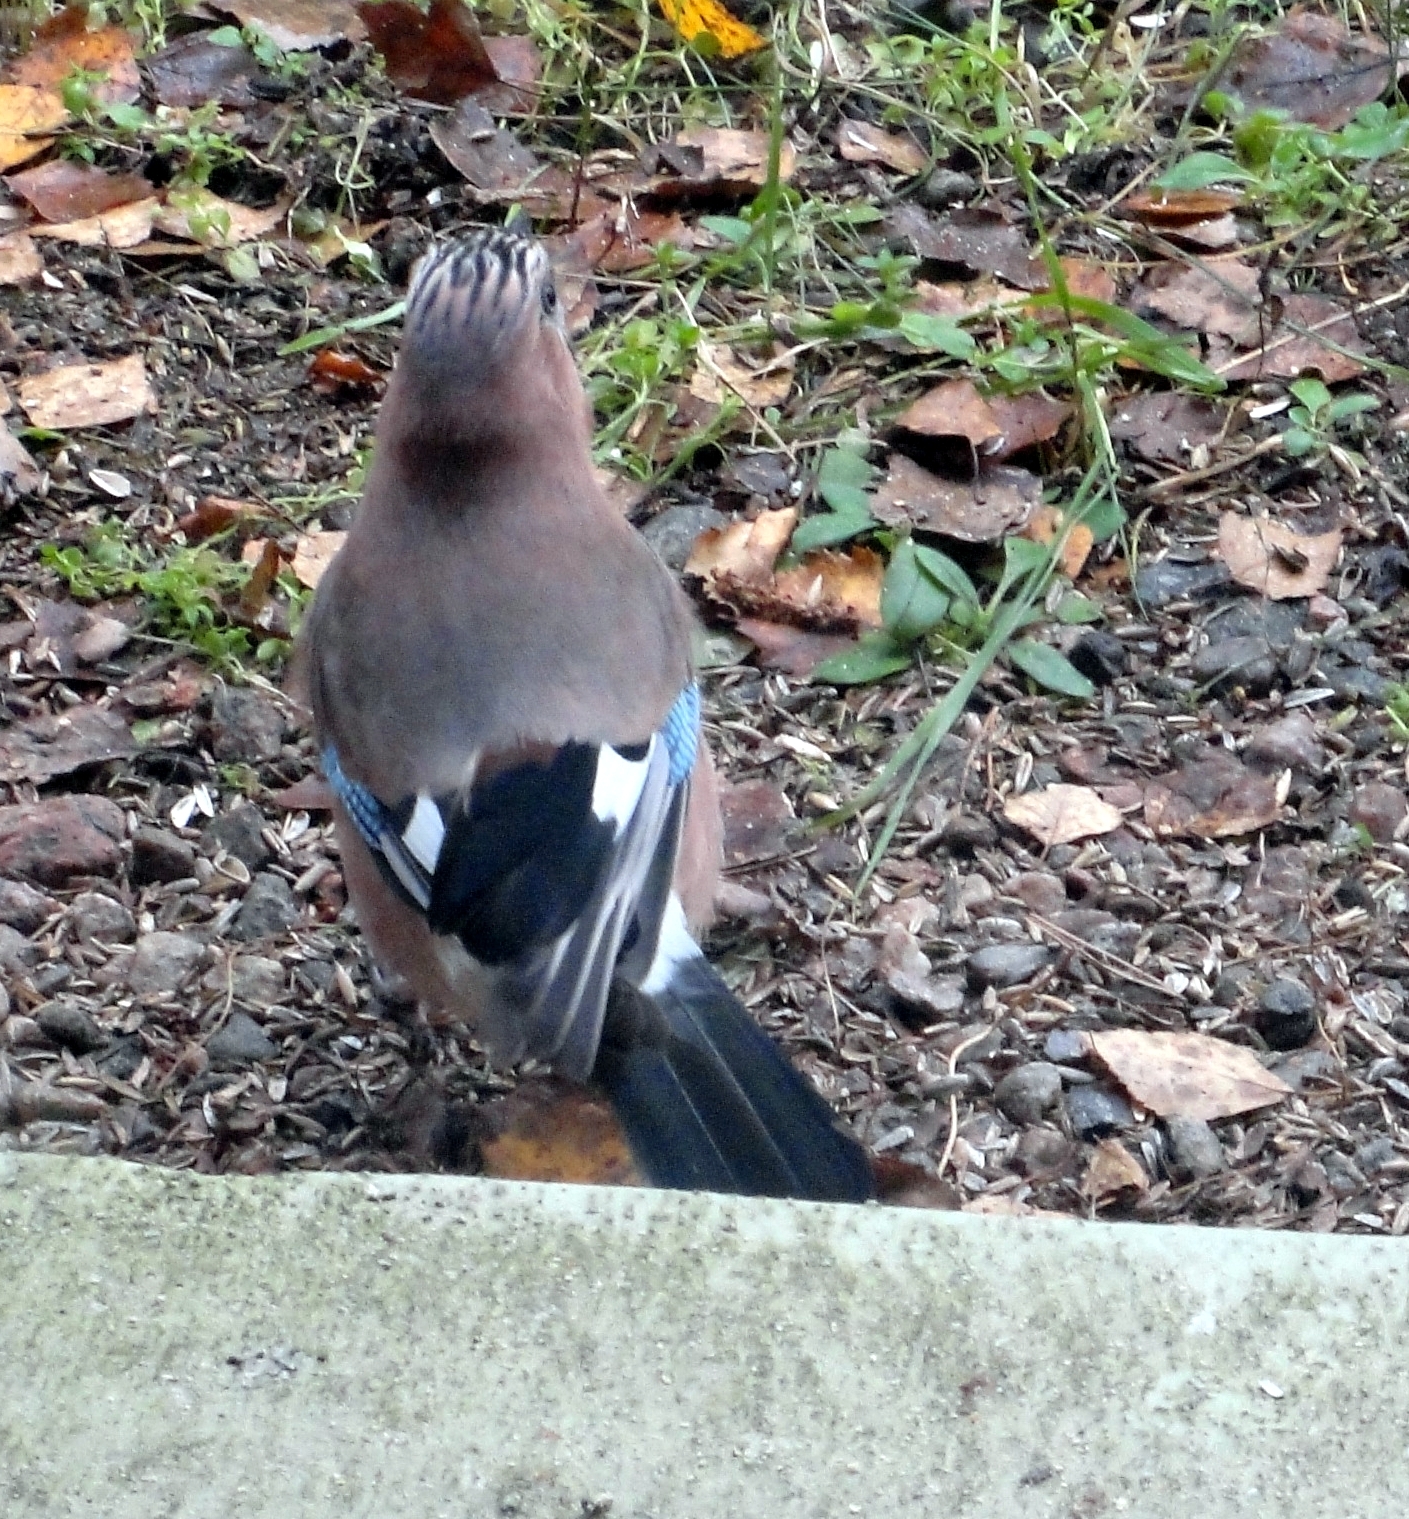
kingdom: Animalia
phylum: Chordata
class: Aves
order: Passeriformes
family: Corvidae
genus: Garrulus
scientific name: Garrulus glandarius
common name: Eurasian jay
